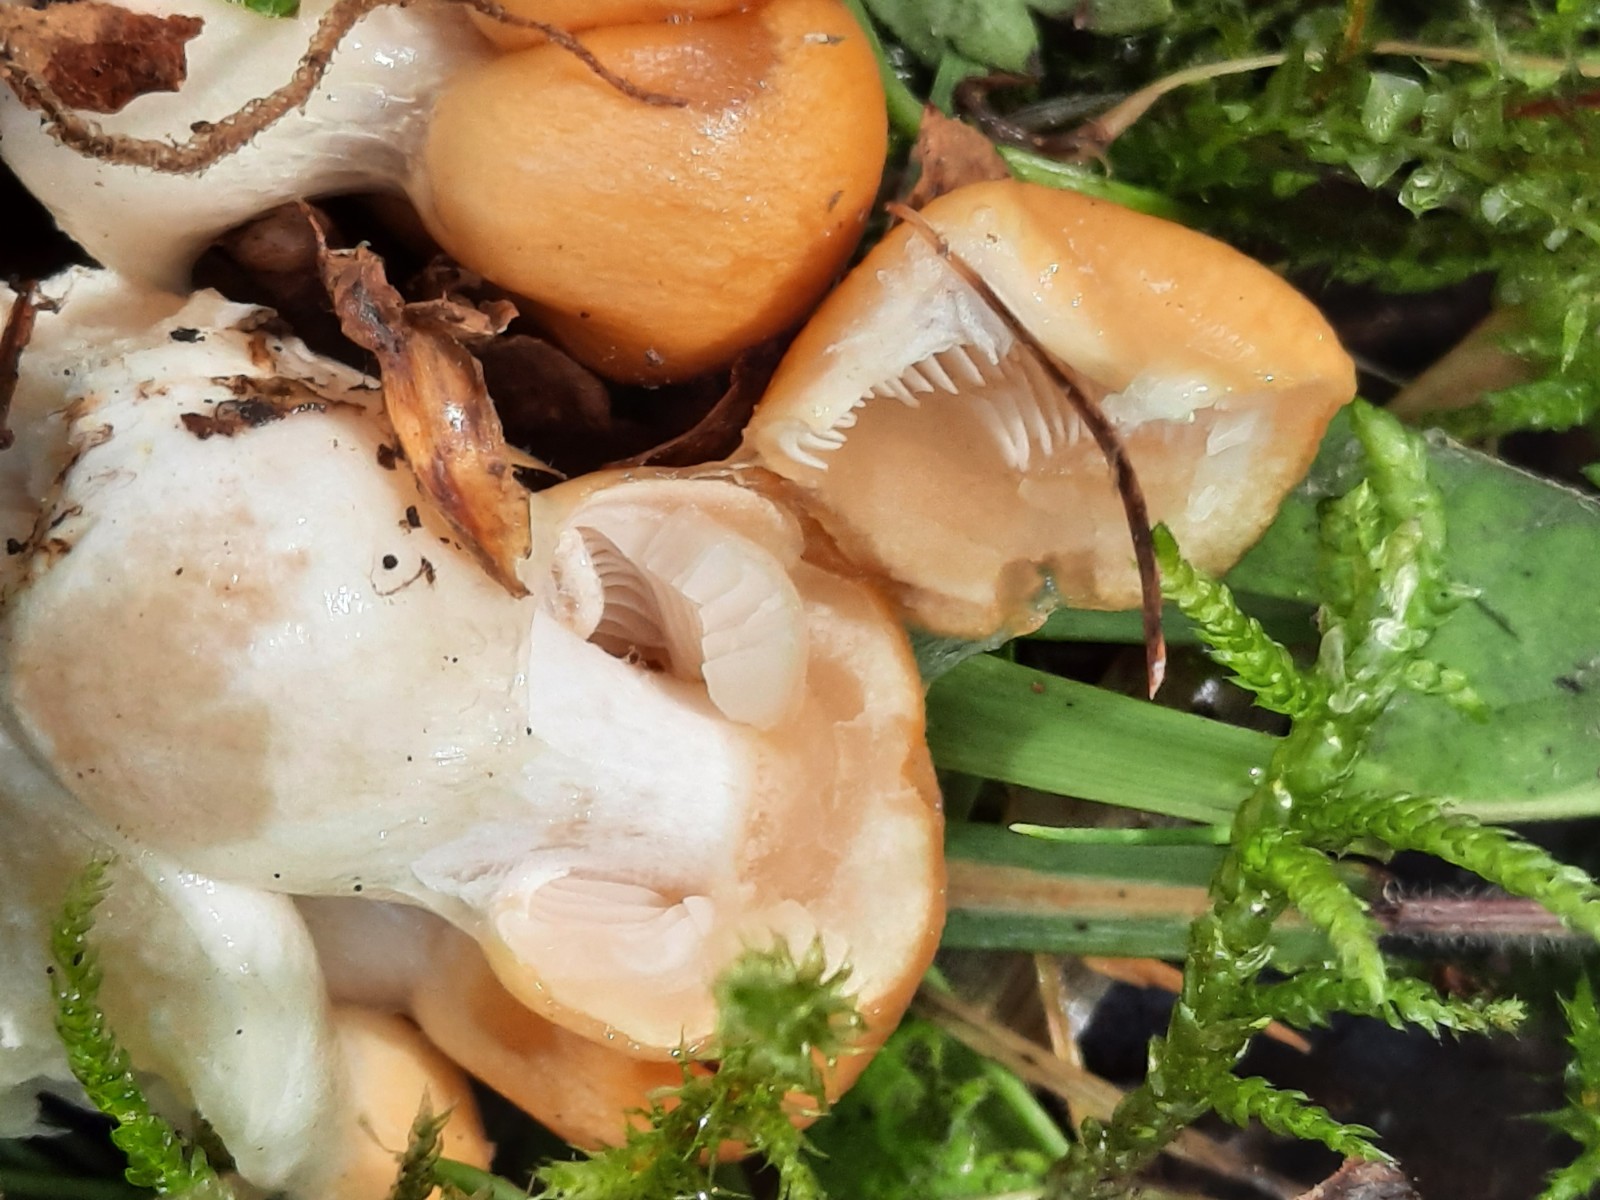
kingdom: Fungi
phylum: Basidiomycota
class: Agaricomycetes
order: Agaricales
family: Cortinariaceae
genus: Thaxterogaster
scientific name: Thaxterogaster emollitus
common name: besk slørhat
